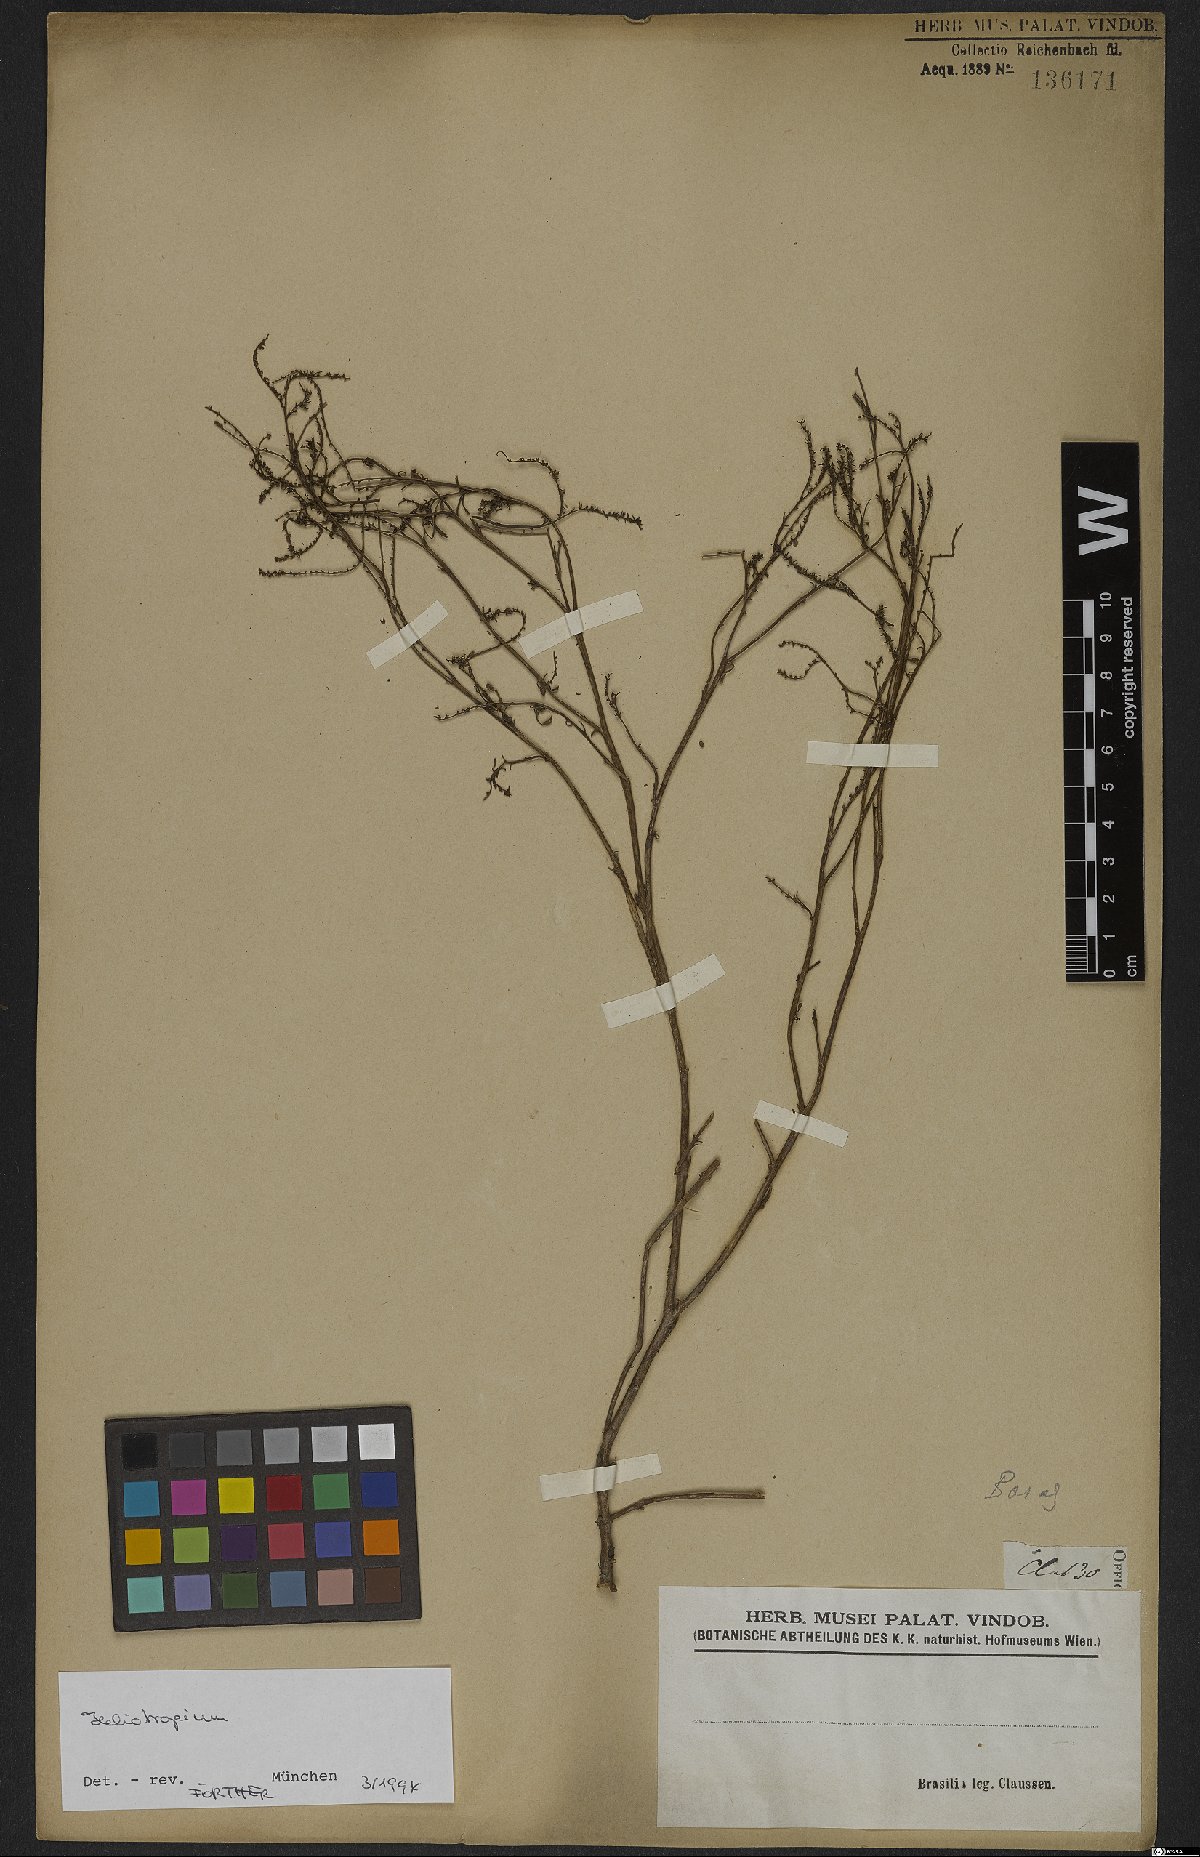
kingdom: Plantae
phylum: Tracheophyta
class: Magnoliopsida
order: Boraginales
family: Heliotropiaceae
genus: Heliotropium
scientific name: Heliotropium
